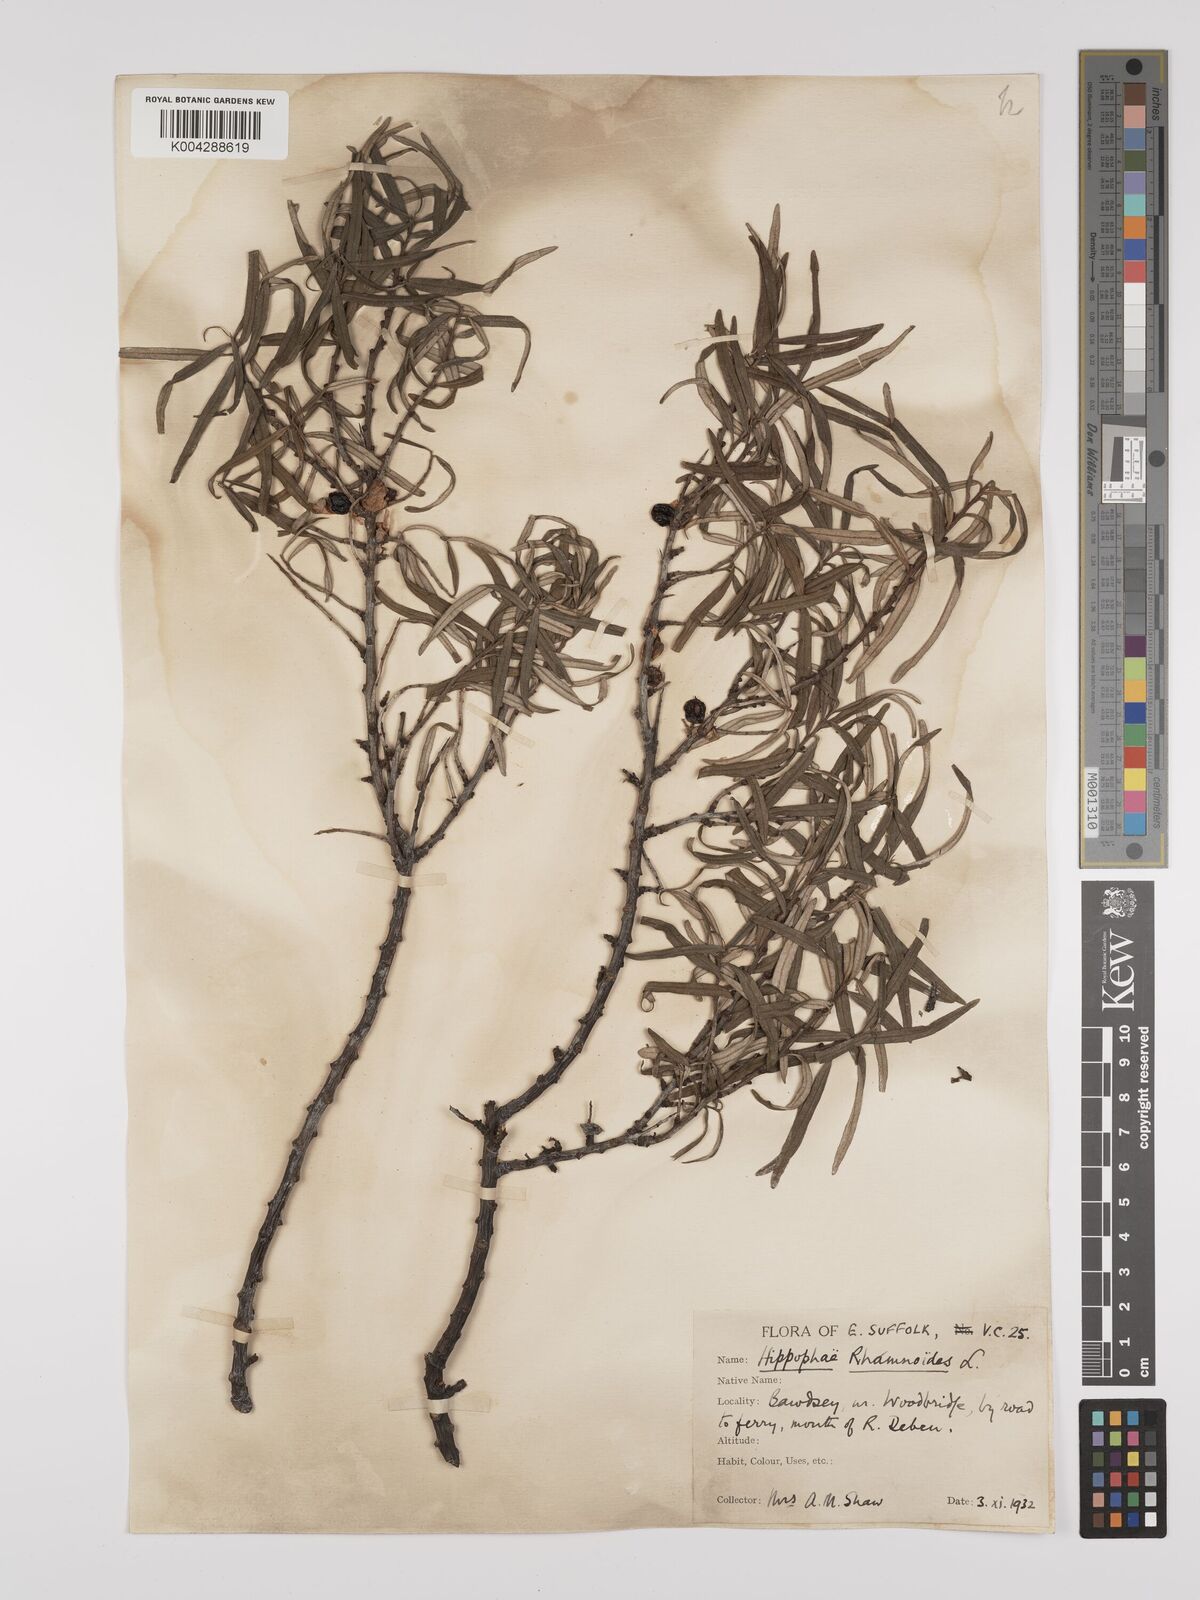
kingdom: Plantae
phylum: Tracheophyta
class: Magnoliopsida
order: Rosales
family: Elaeagnaceae
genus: Hippophae
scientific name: Hippophae rhamnoides
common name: Sea-buckthorn
